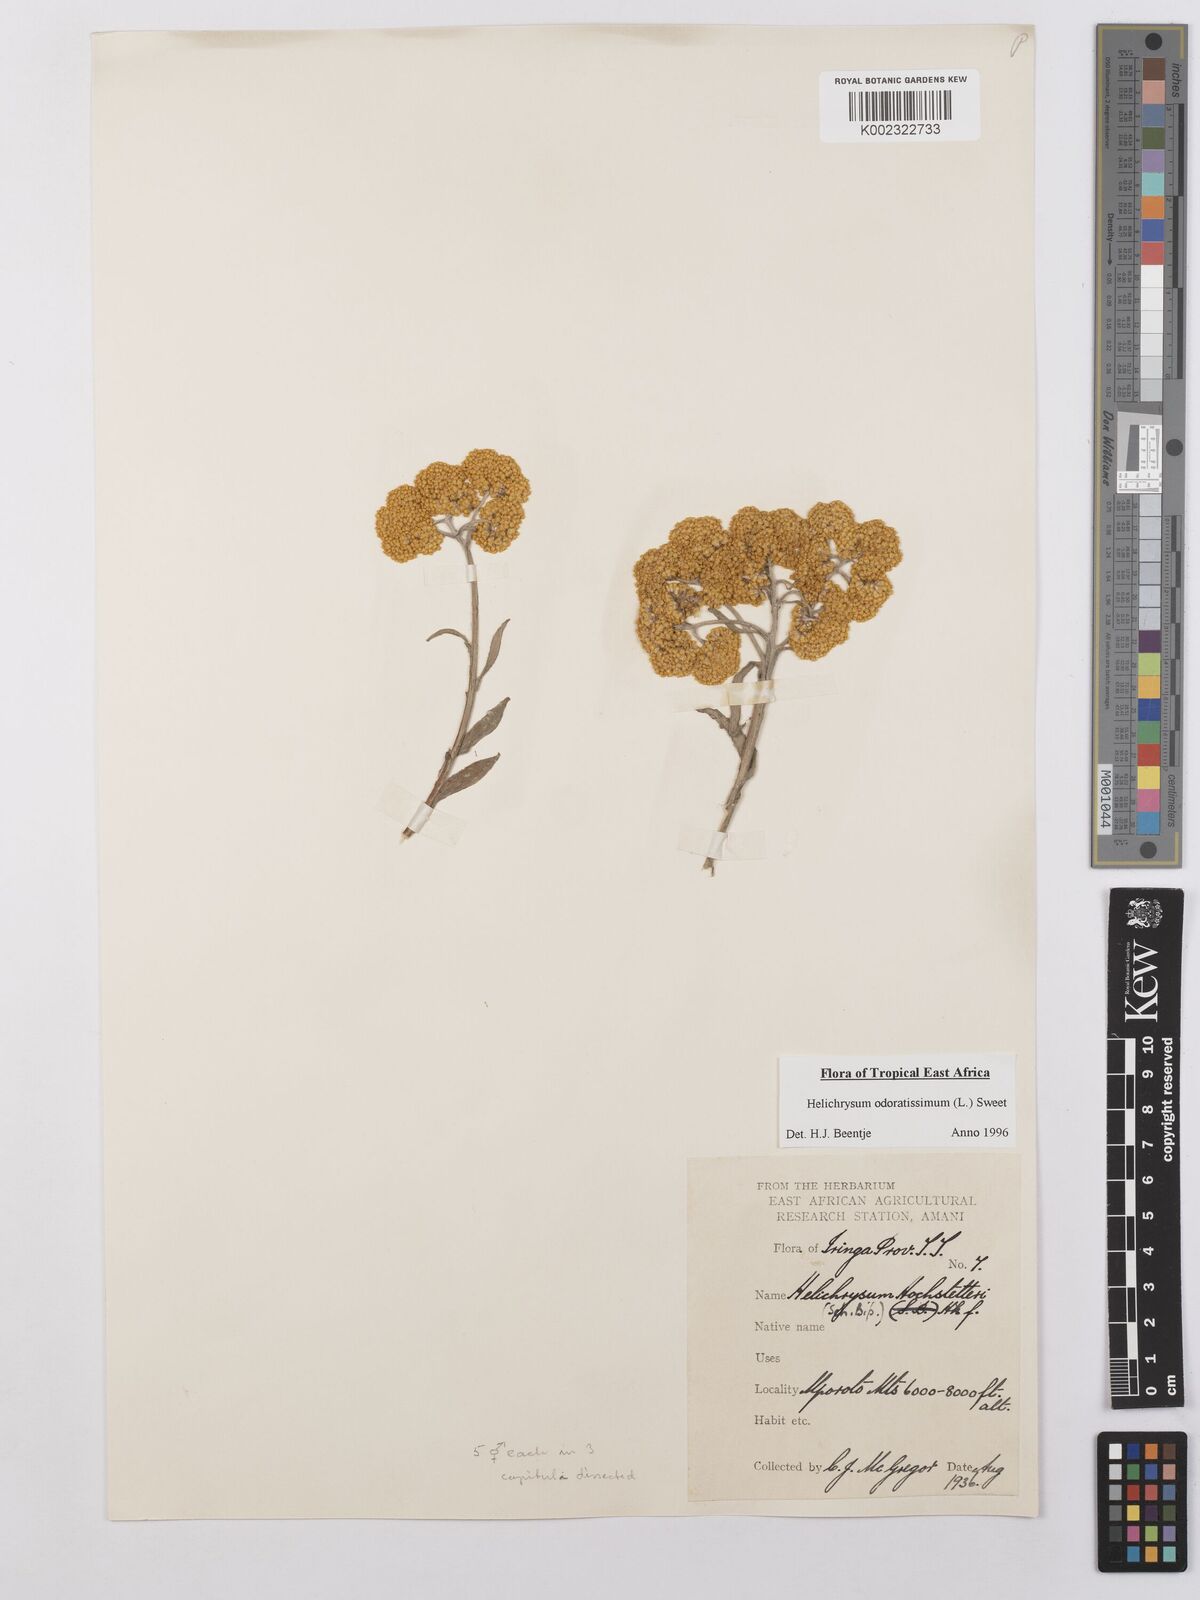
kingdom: Plantae
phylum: Tracheophyta
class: Magnoliopsida
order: Asterales
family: Asteraceae
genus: Helichrysum
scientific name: Helichrysum odoratissimum
